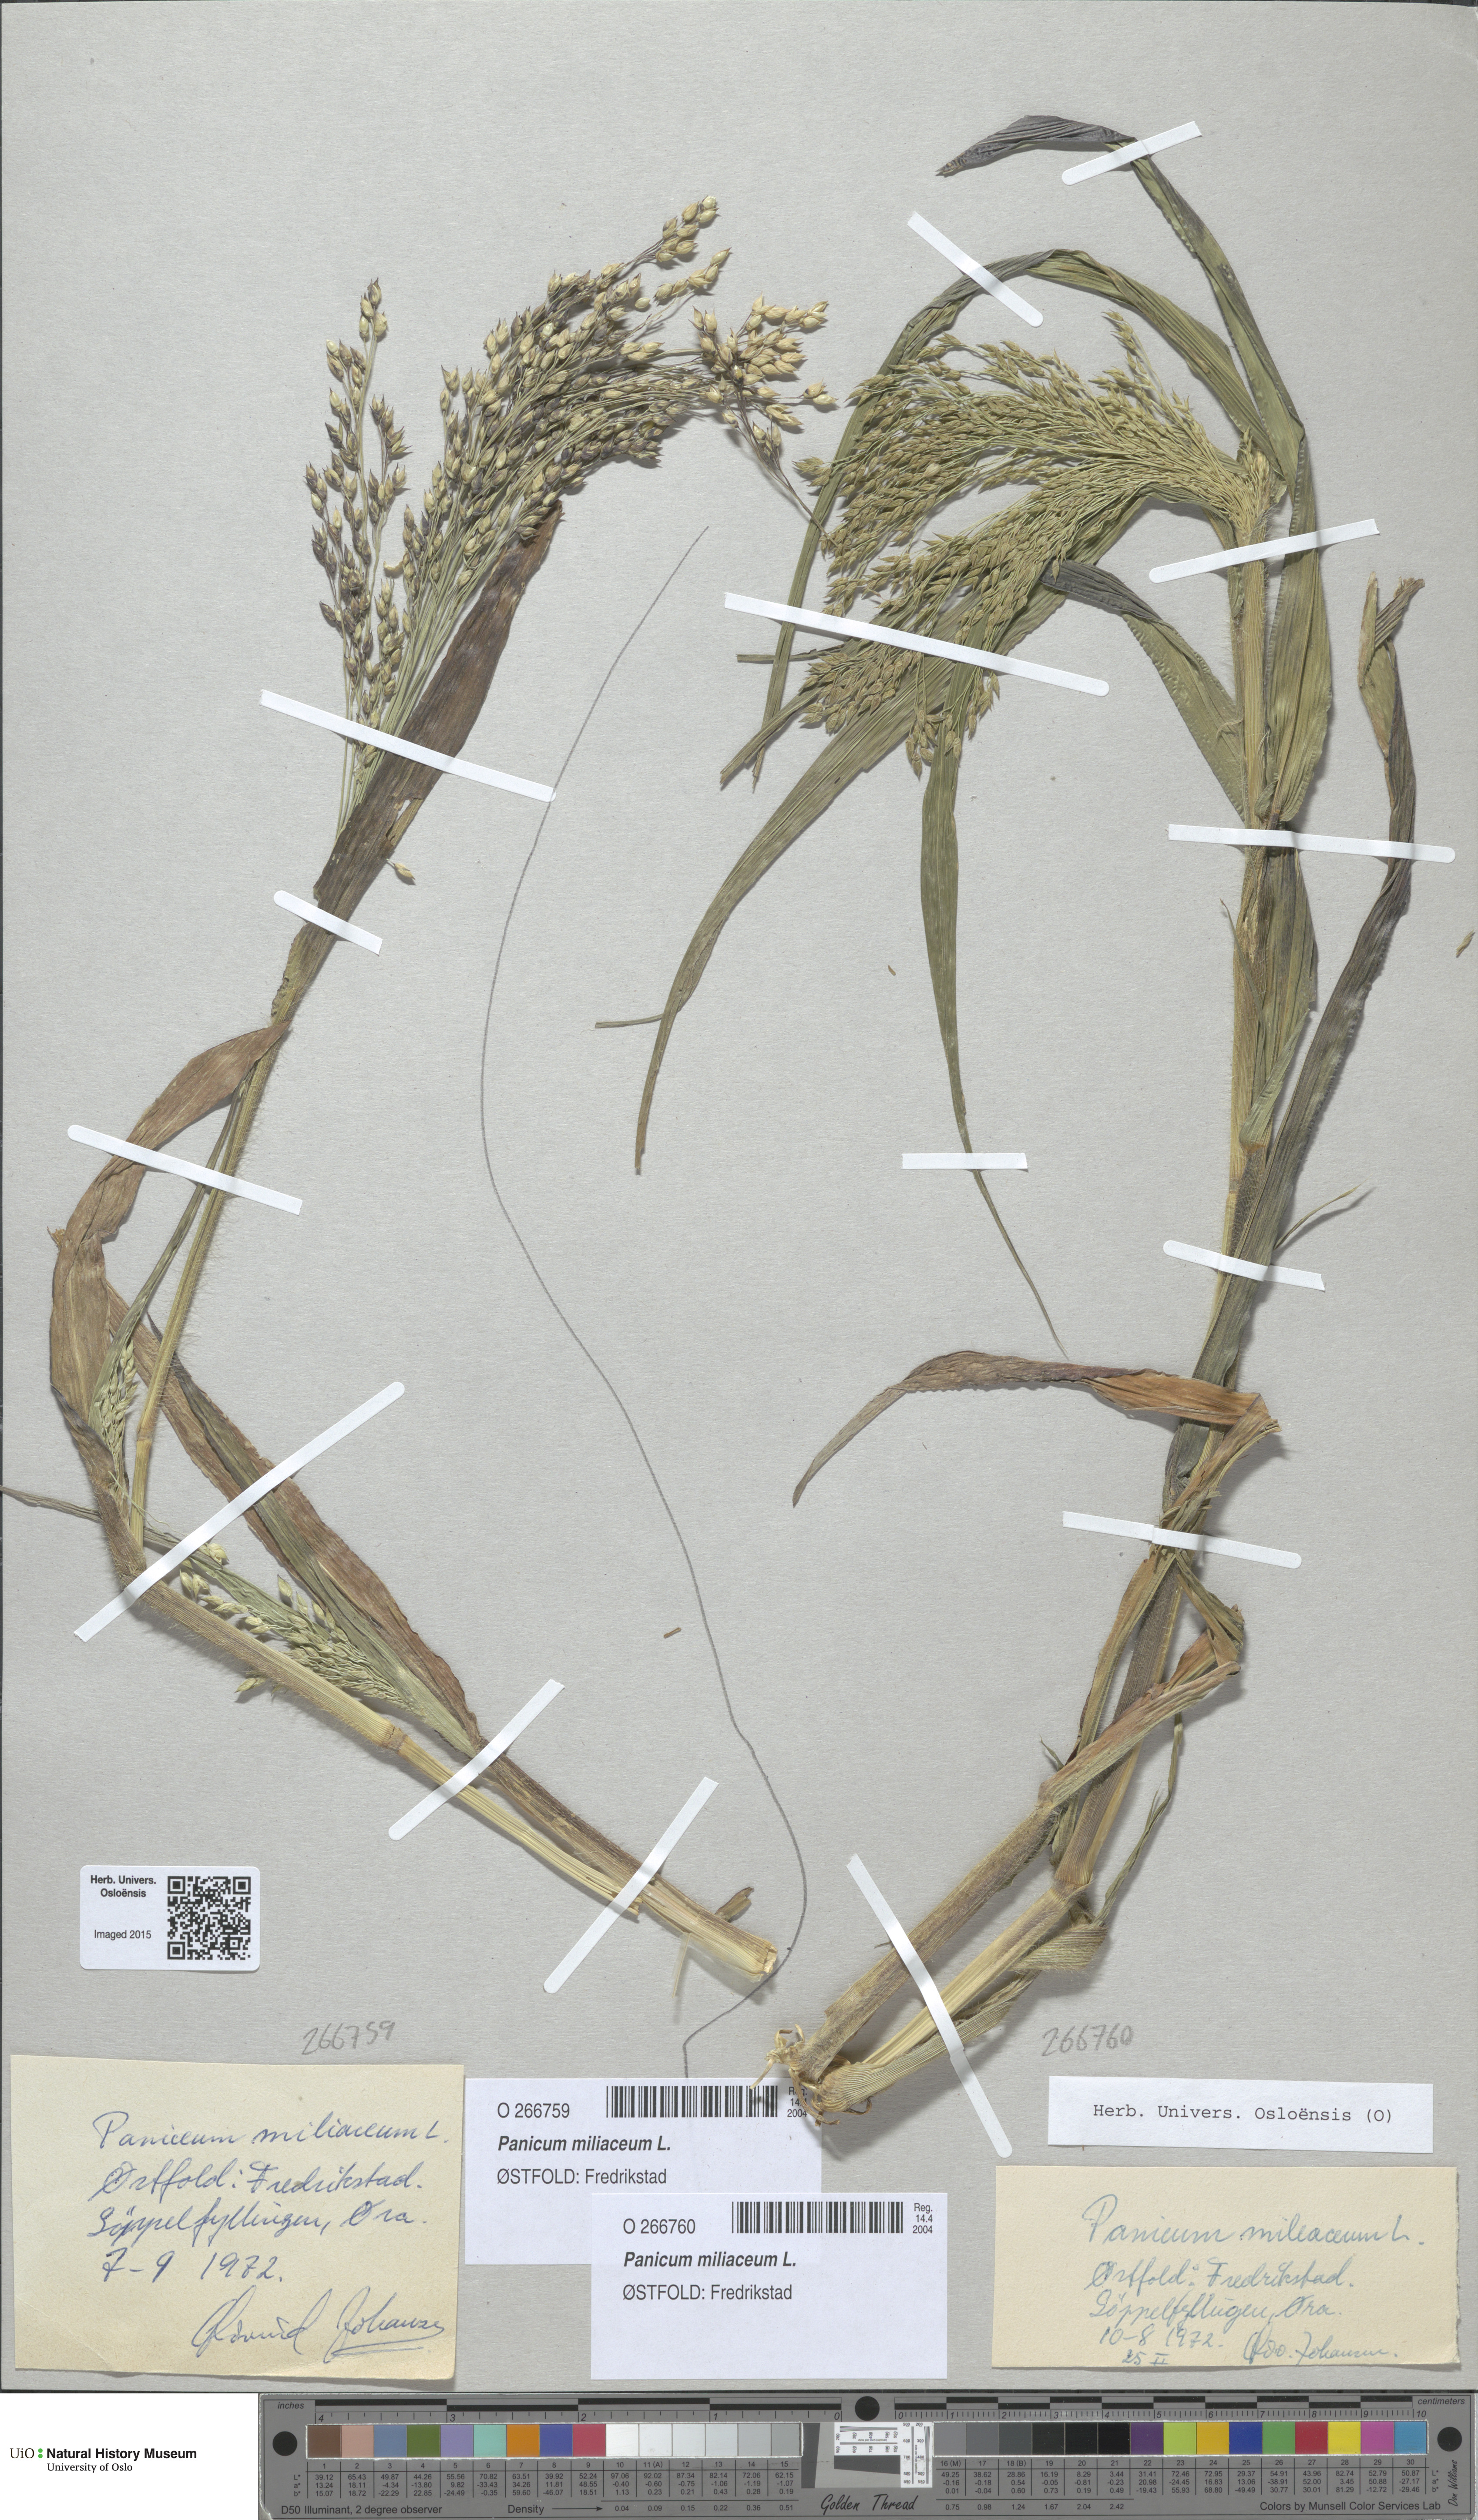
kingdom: Plantae
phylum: Tracheophyta
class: Liliopsida
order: Poales
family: Poaceae
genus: Panicum
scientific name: Panicum miliaceum
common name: Common millet
